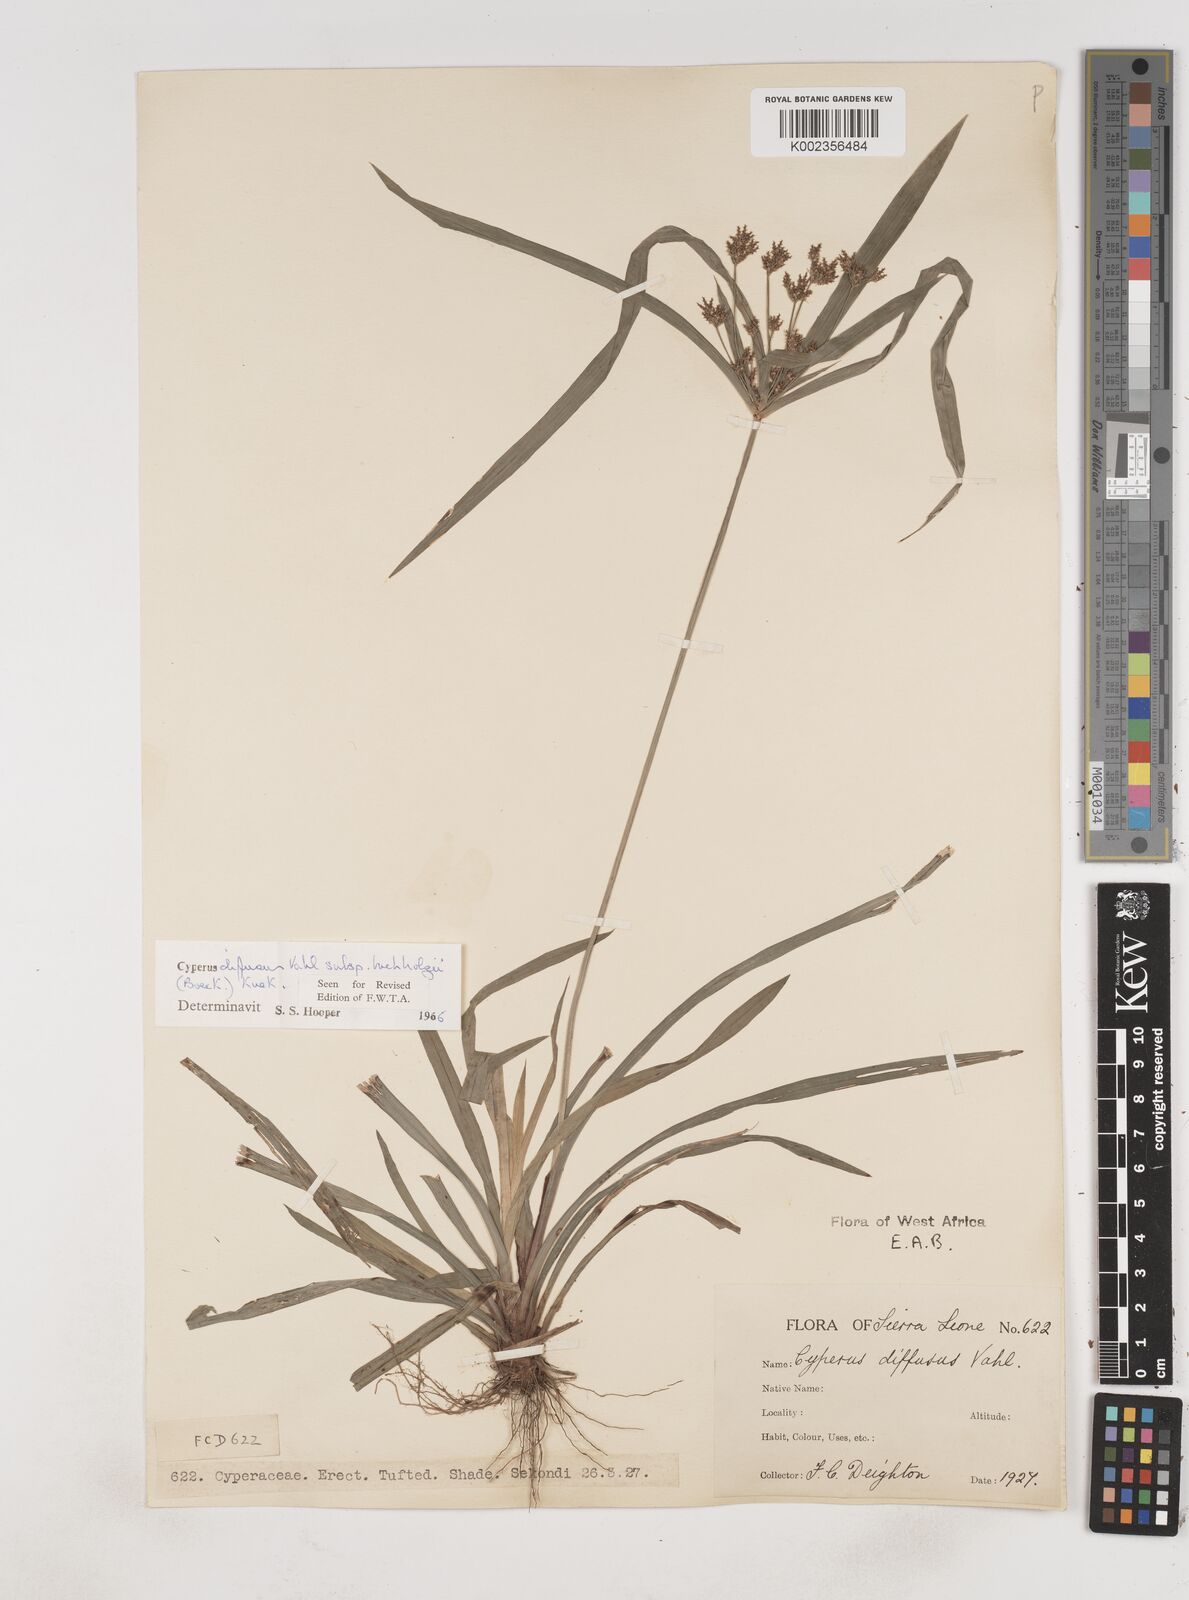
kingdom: Plantae
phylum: Tracheophyta
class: Liliopsida
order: Poales
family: Cyperaceae
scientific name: Cyperaceae
